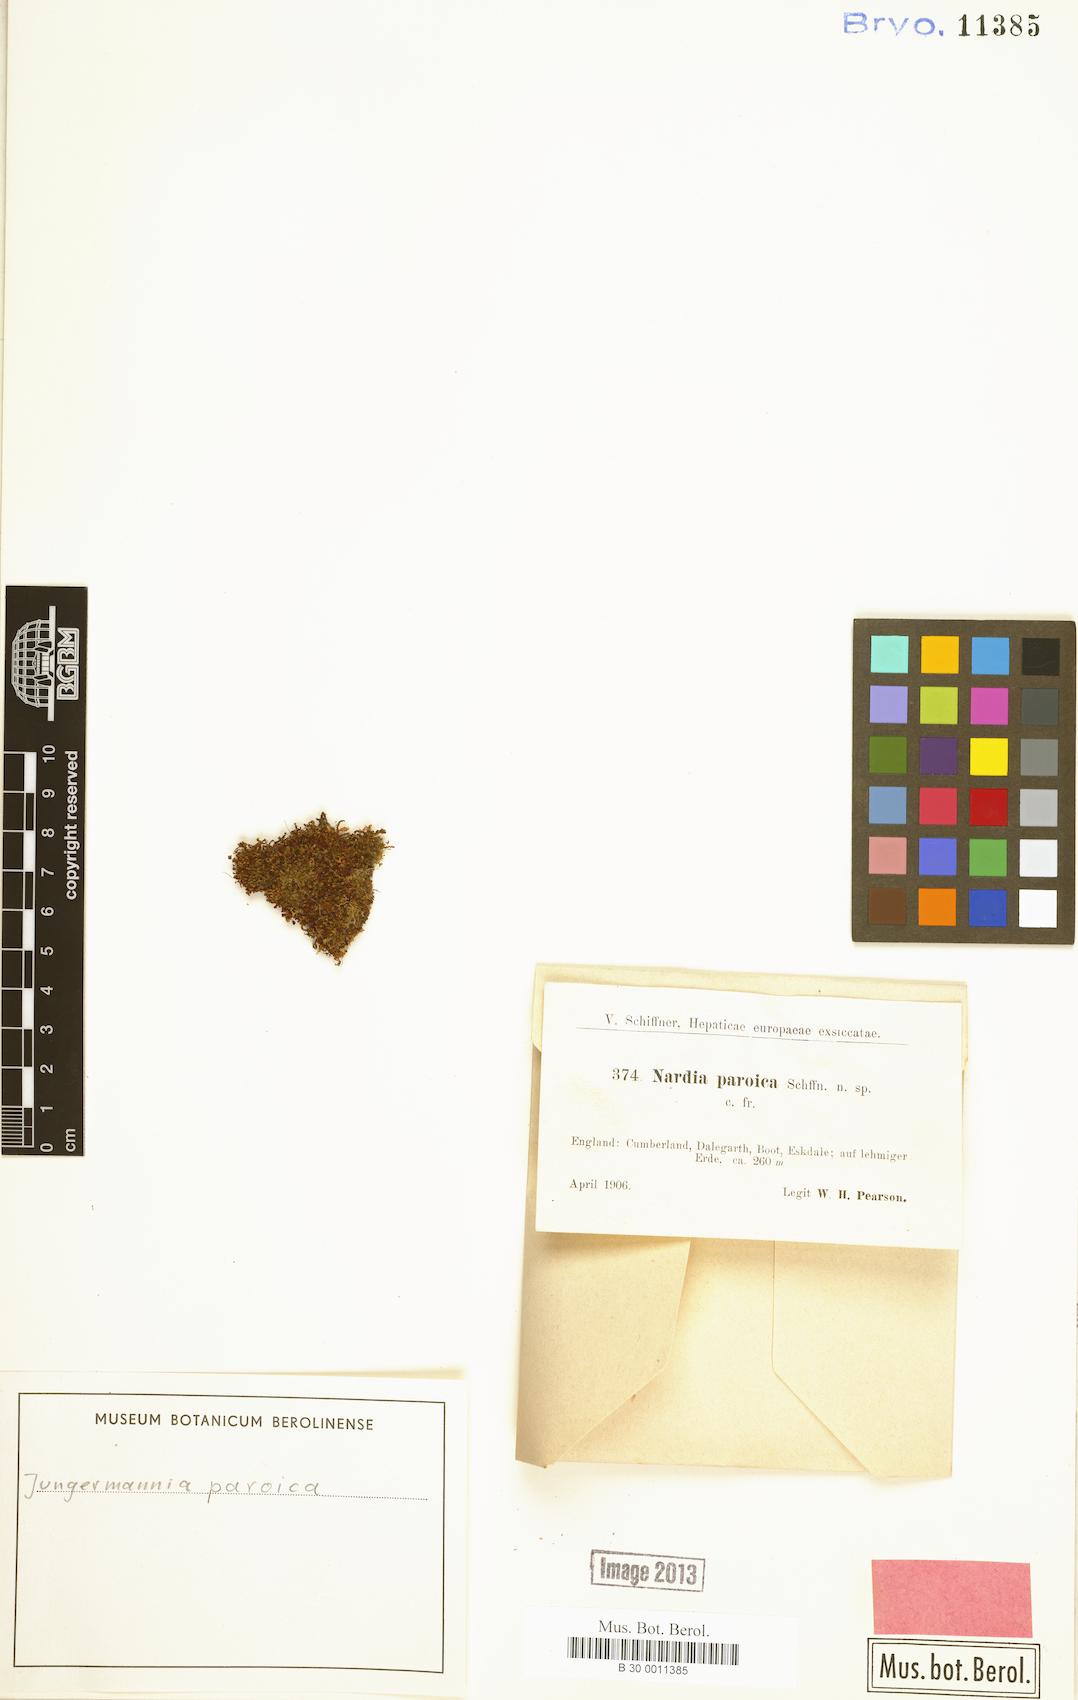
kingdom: Plantae
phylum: Marchantiophyta
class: Jungermanniopsida
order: Jungermanniales
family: Solenostomataceae
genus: Solenostoma
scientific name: Solenostoma paroicum
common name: Shining flapwort
